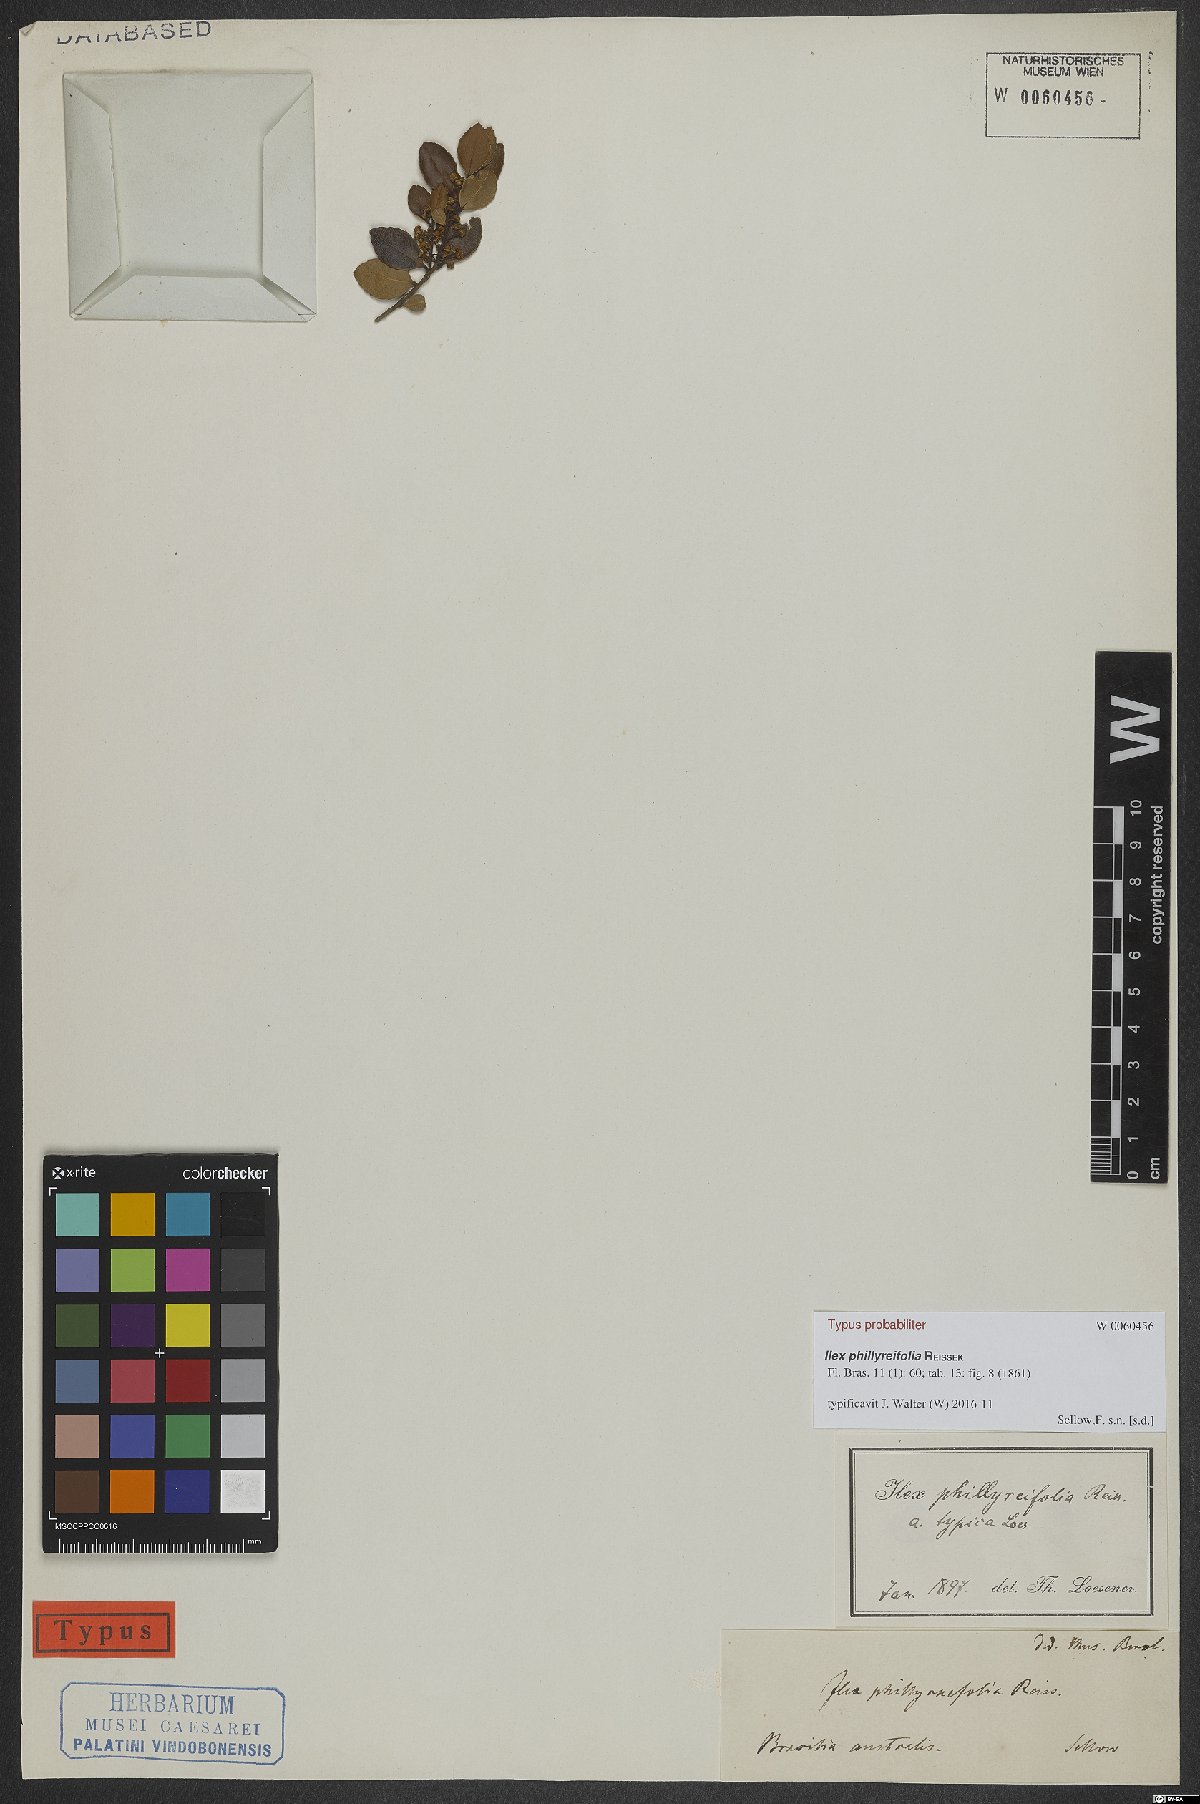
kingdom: Plantae
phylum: Tracheophyta
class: Magnoliopsida
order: Aquifoliales
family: Aquifoliaceae
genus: Ilex
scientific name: Ilex phillyreifolia
